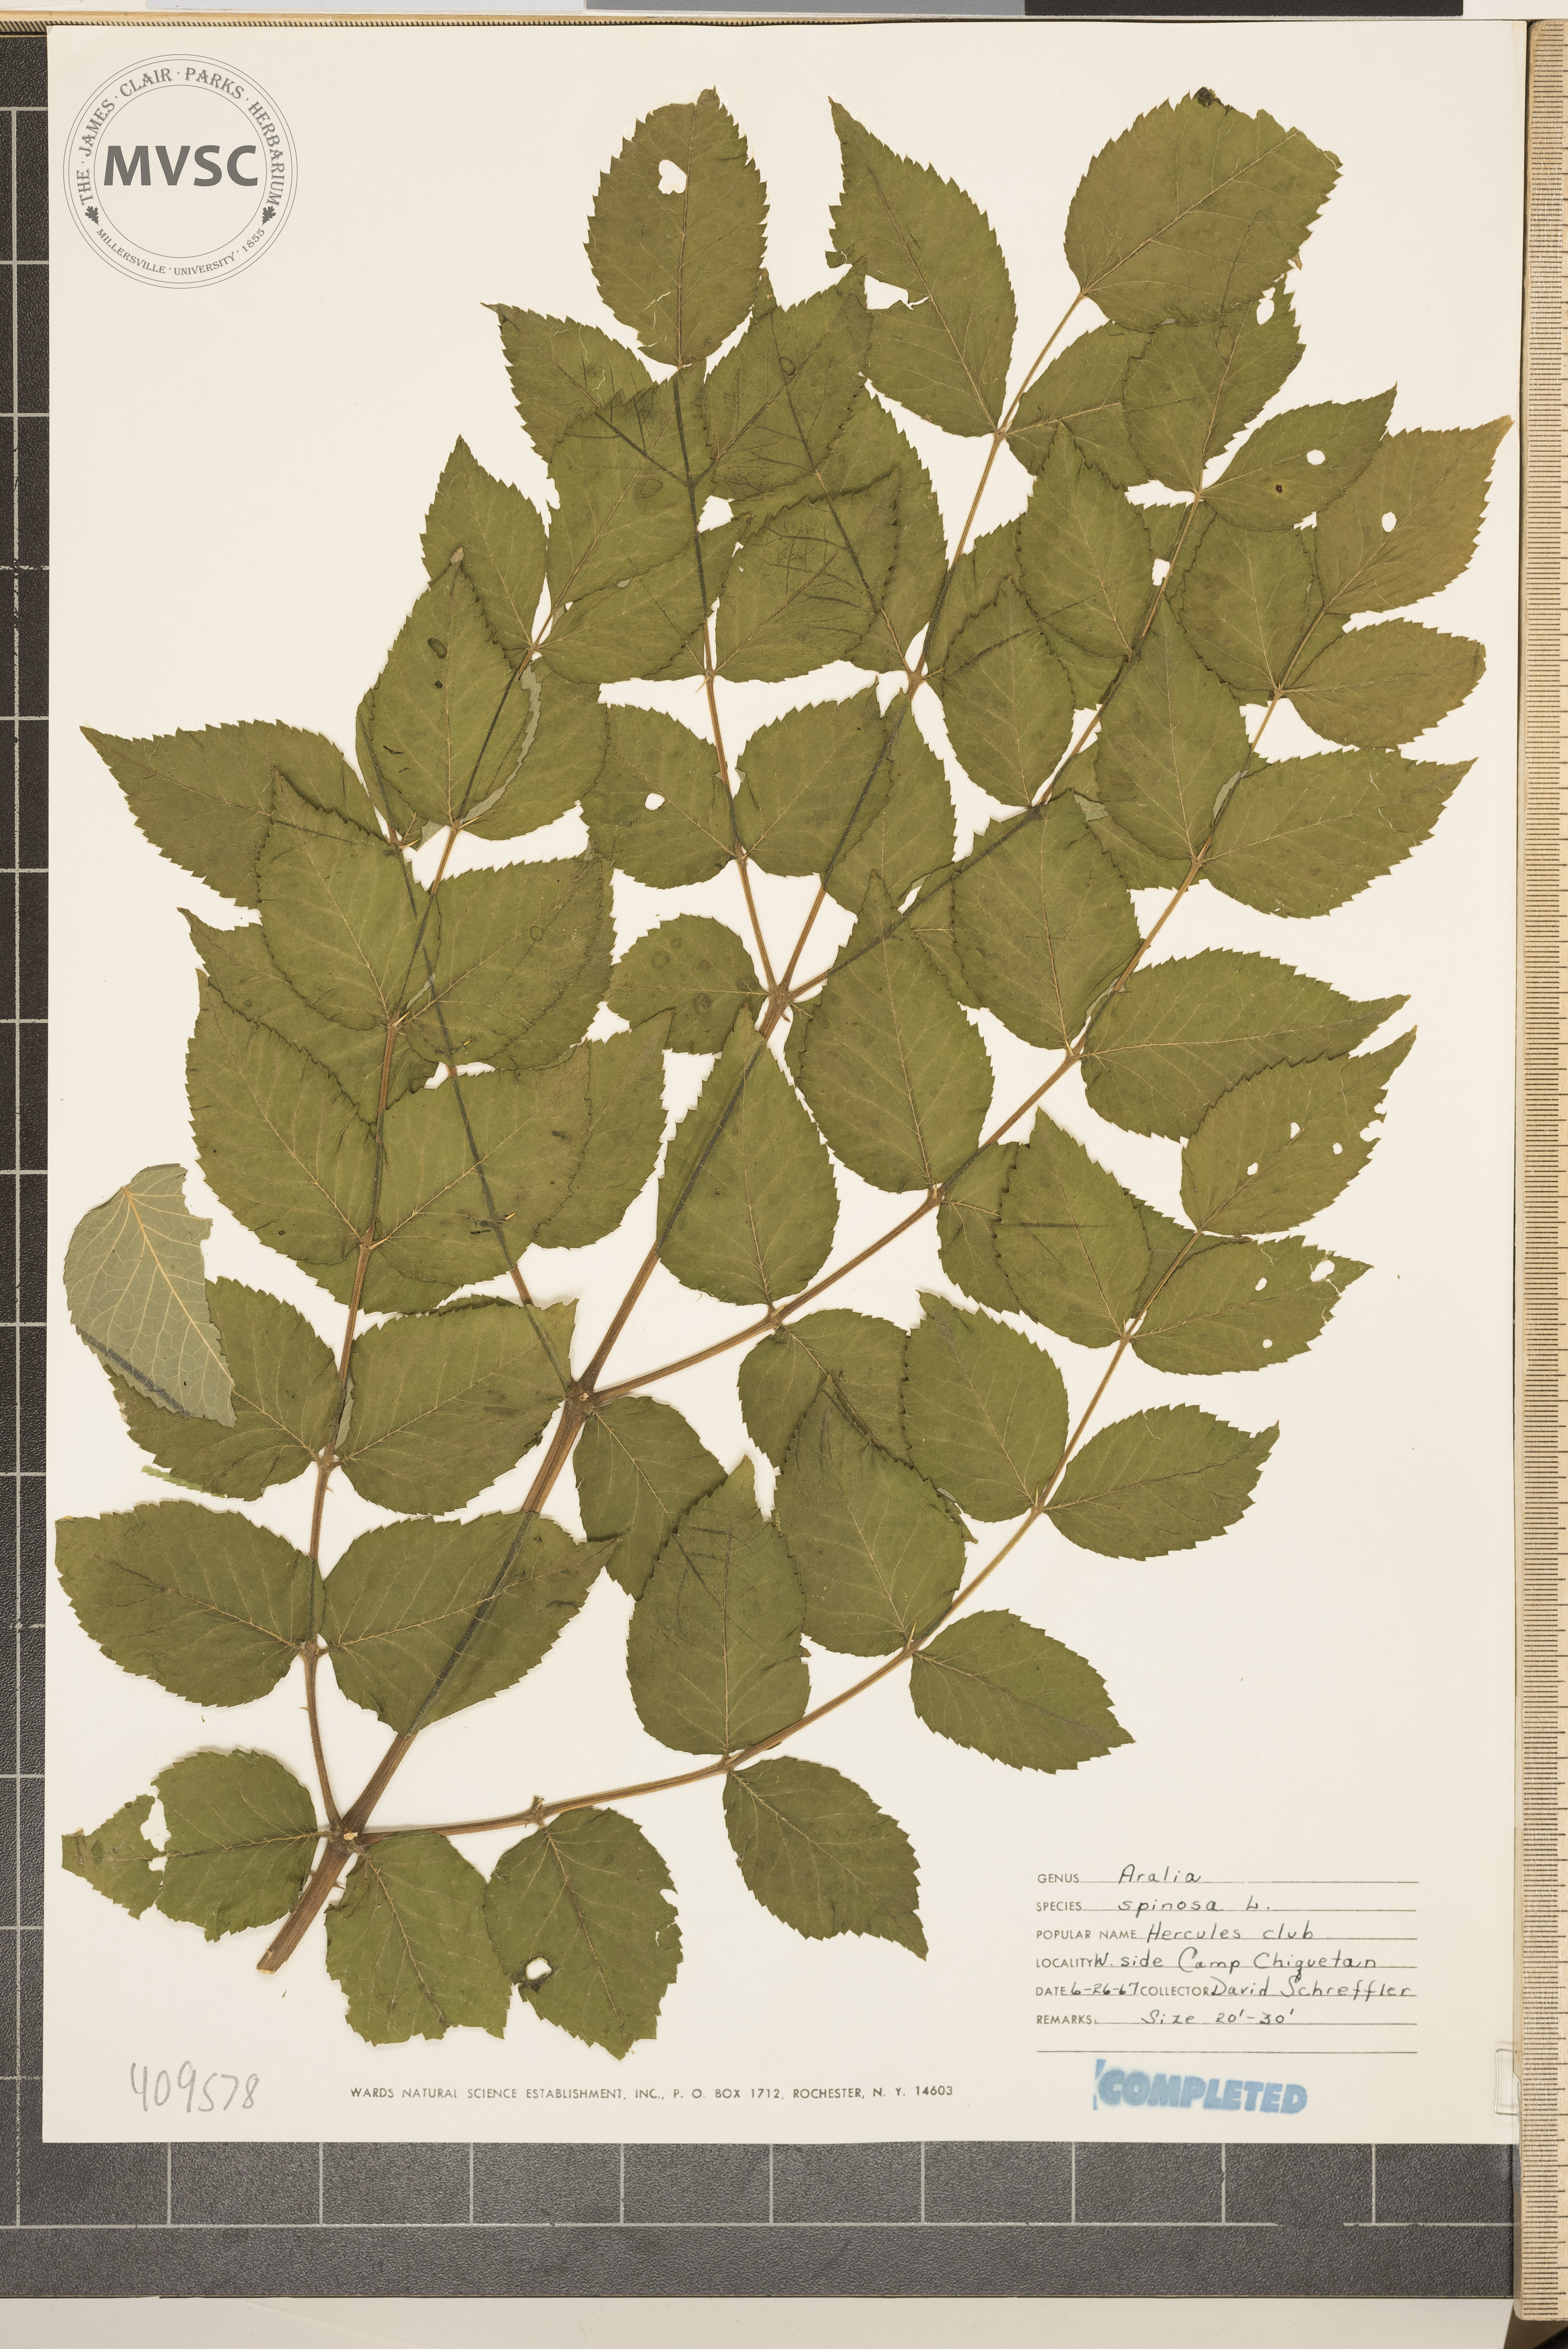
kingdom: Plantae
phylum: Tracheophyta
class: Magnoliopsida
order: Apiales
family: Araliaceae
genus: Aralia
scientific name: Aralia spinosa
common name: Hercules'-club
